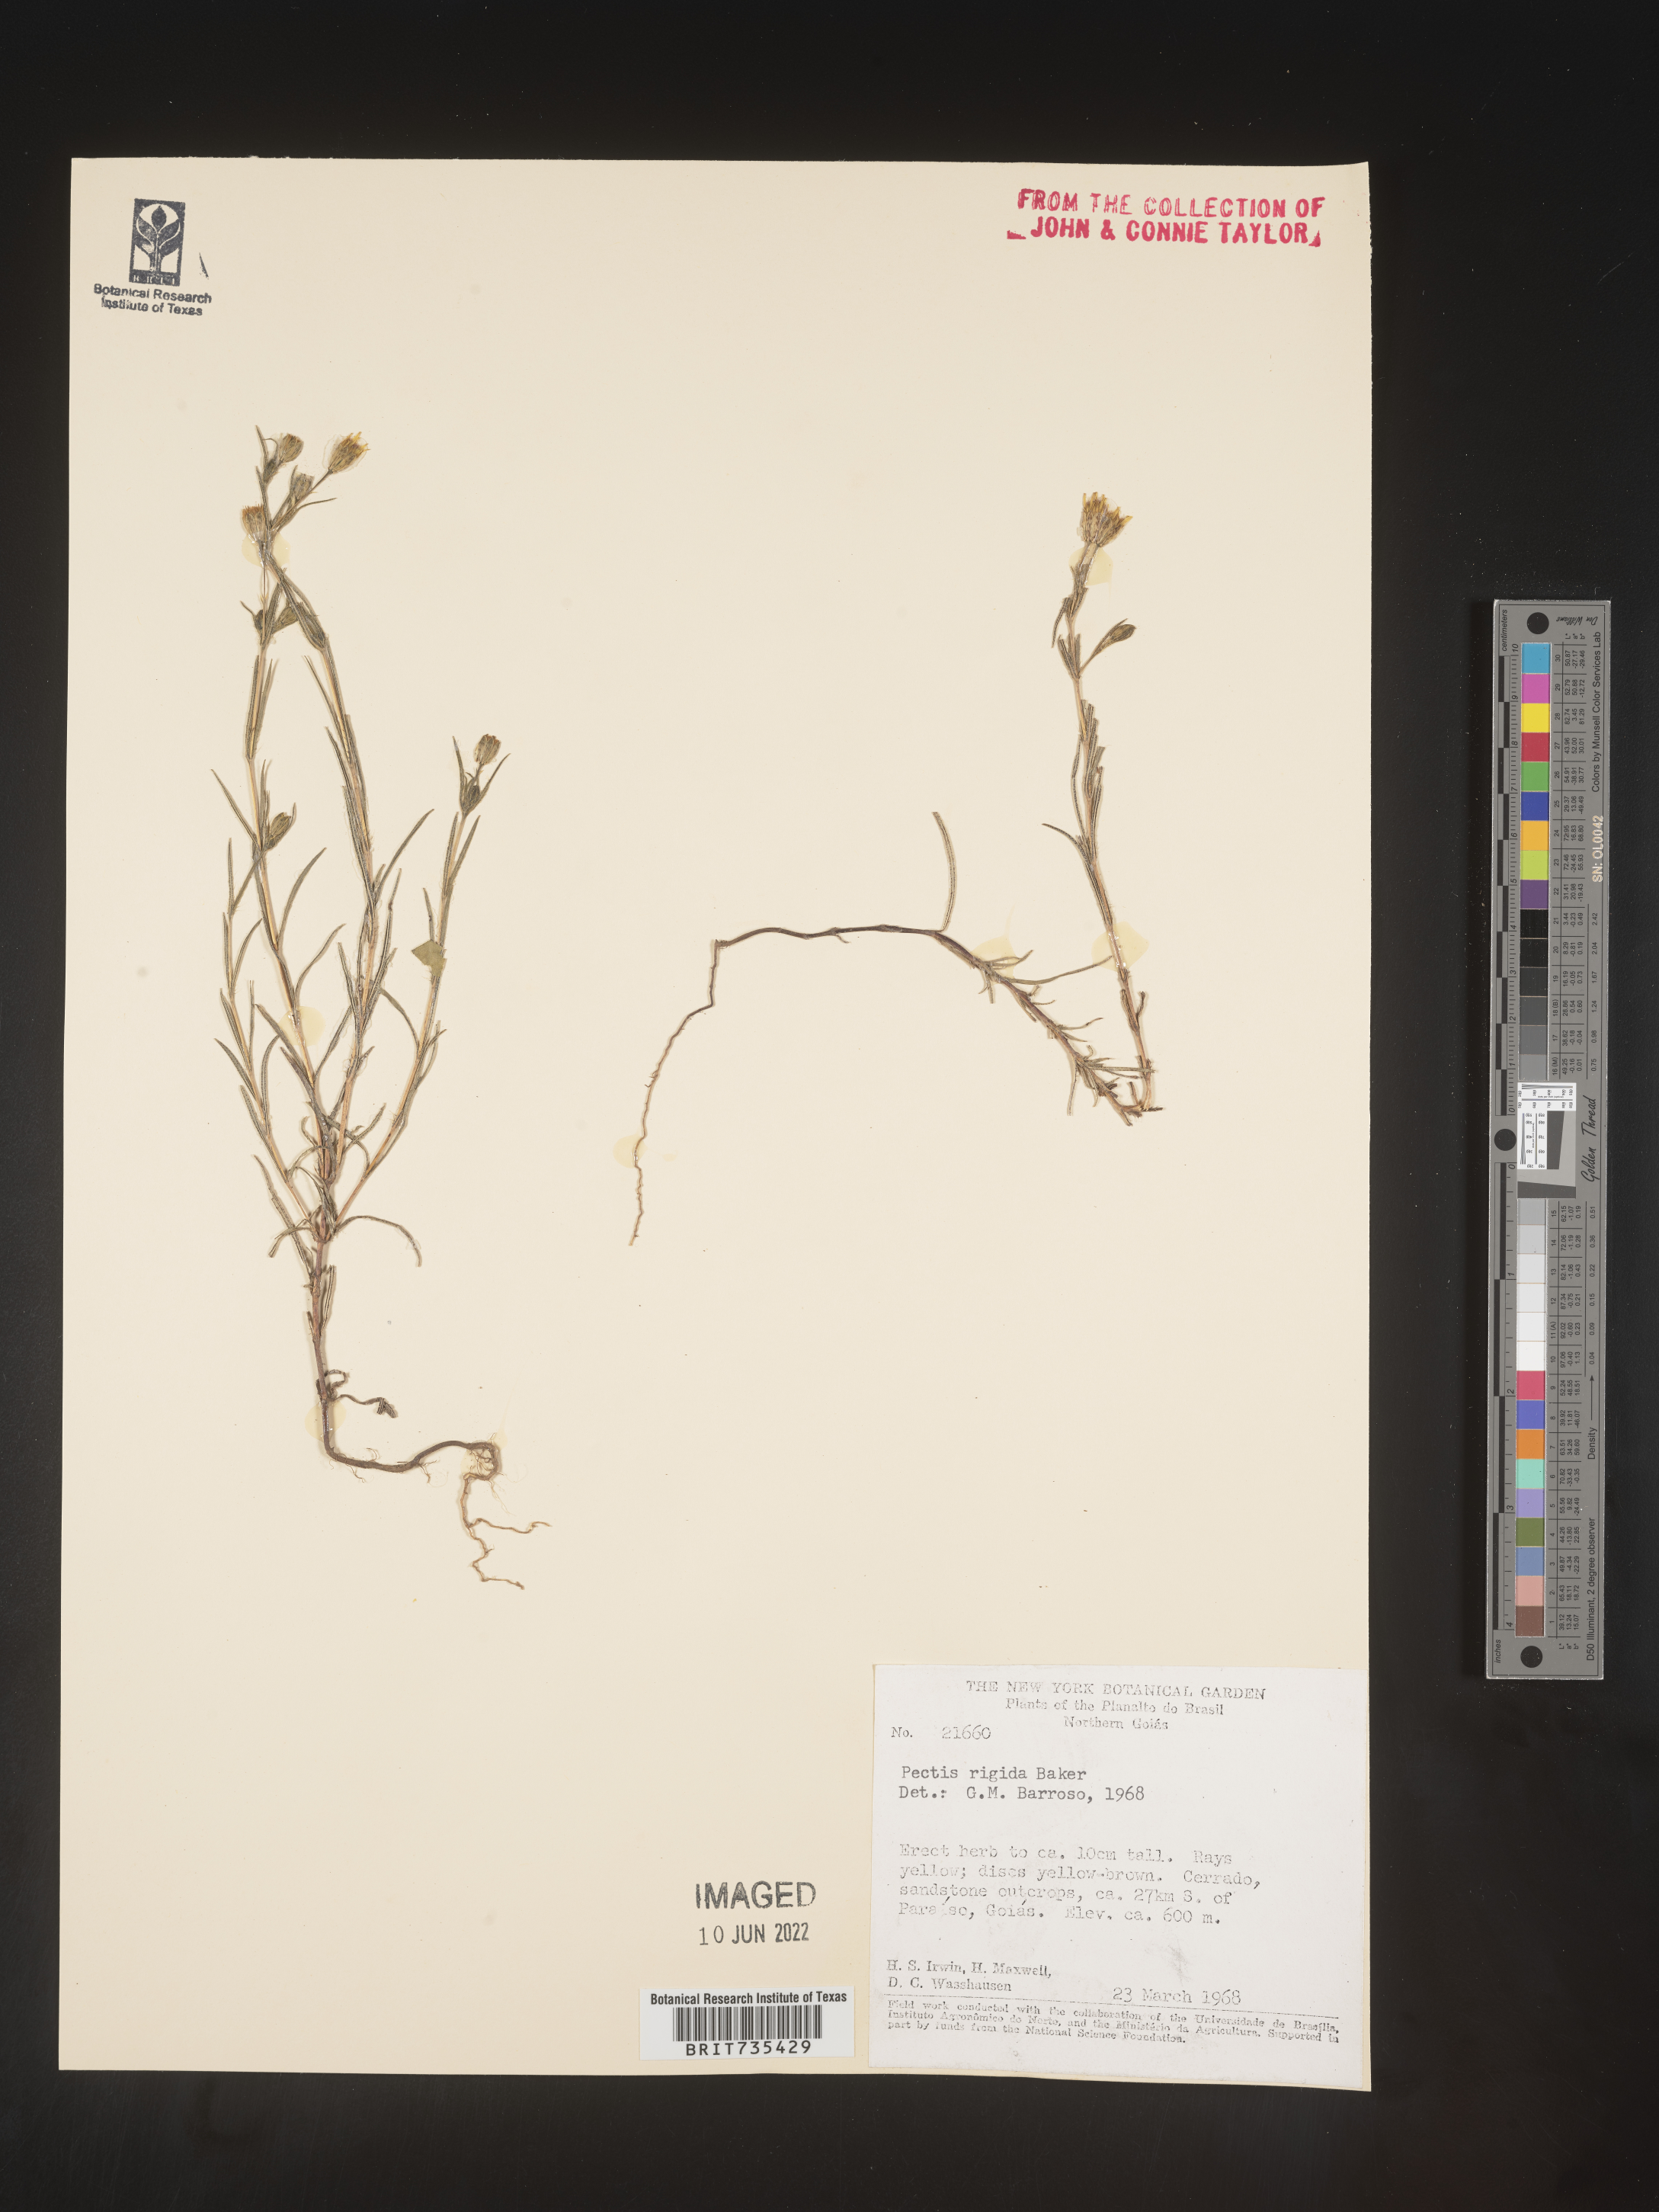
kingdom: Plantae
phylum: Tracheophyta
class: Magnoliopsida
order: Asterales
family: Asteraceae
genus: Pectis
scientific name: Pectis
